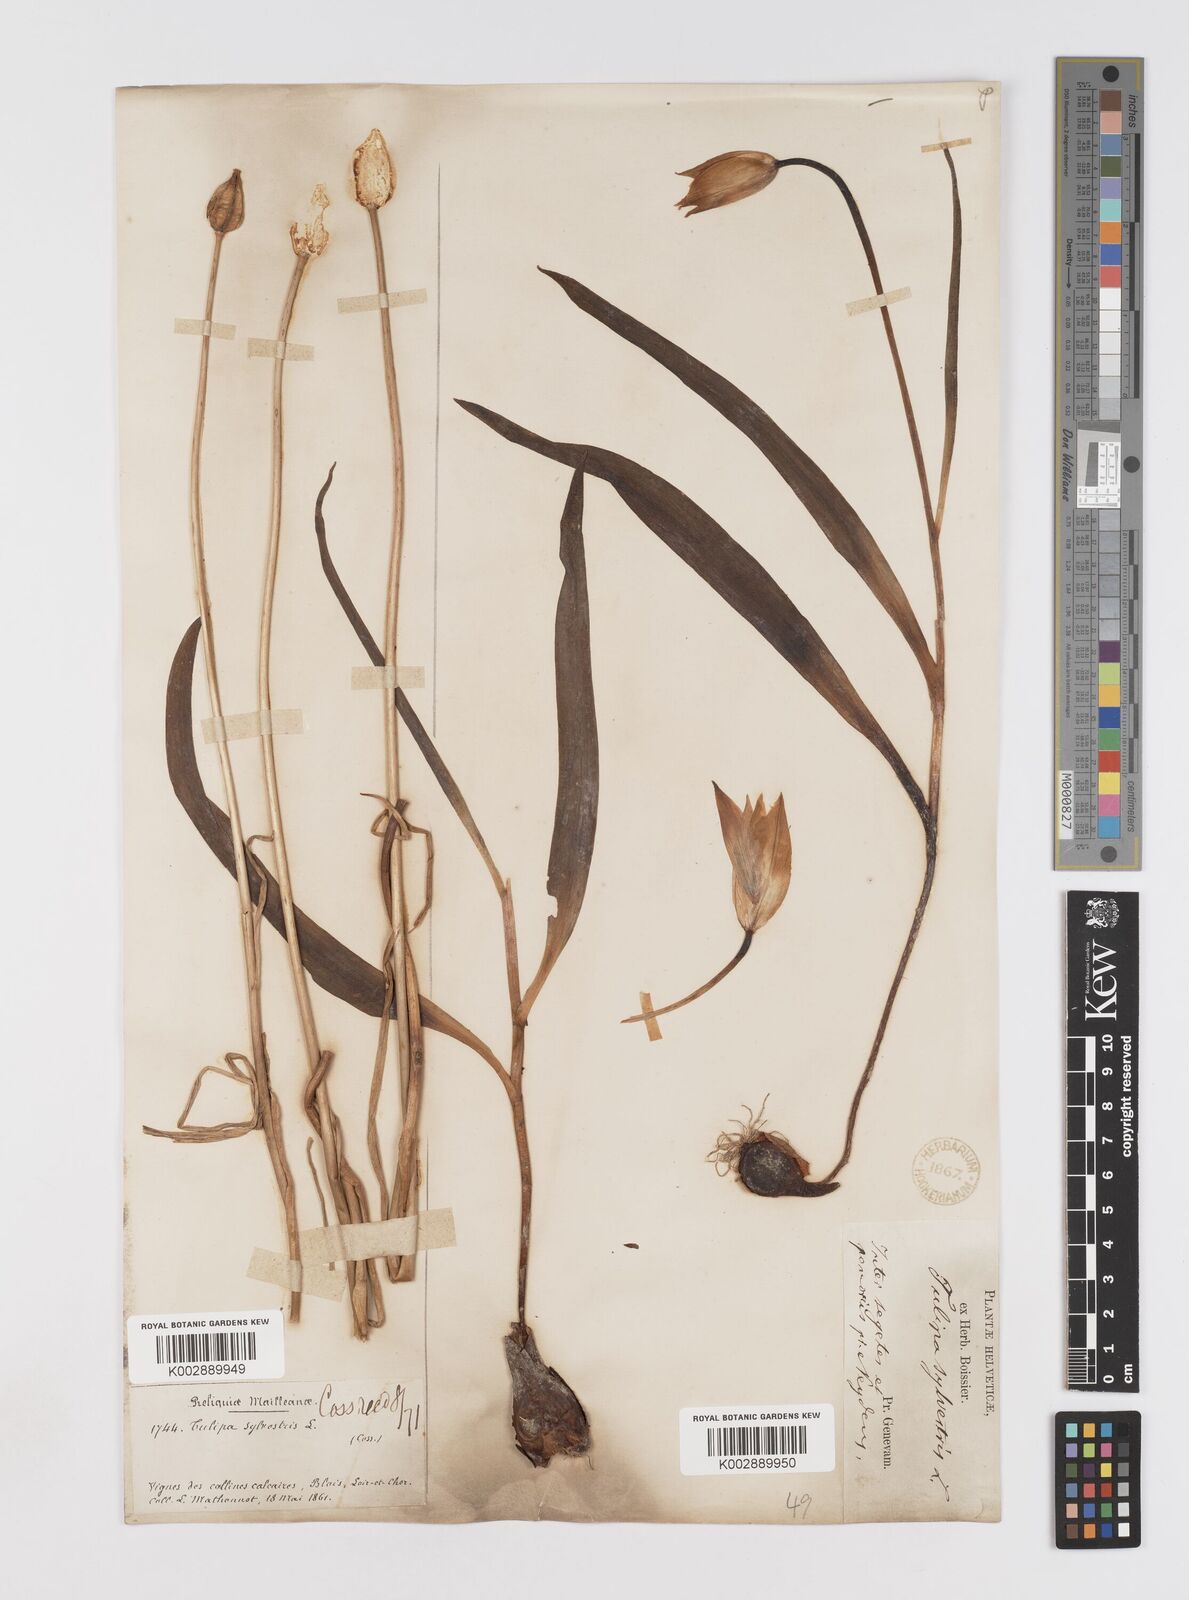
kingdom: Plantae
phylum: Tracheophyta
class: Liliopsida
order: Liliales
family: Liliaceae
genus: Tulipa
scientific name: Tulipa sylvestris
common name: Wild tulip
